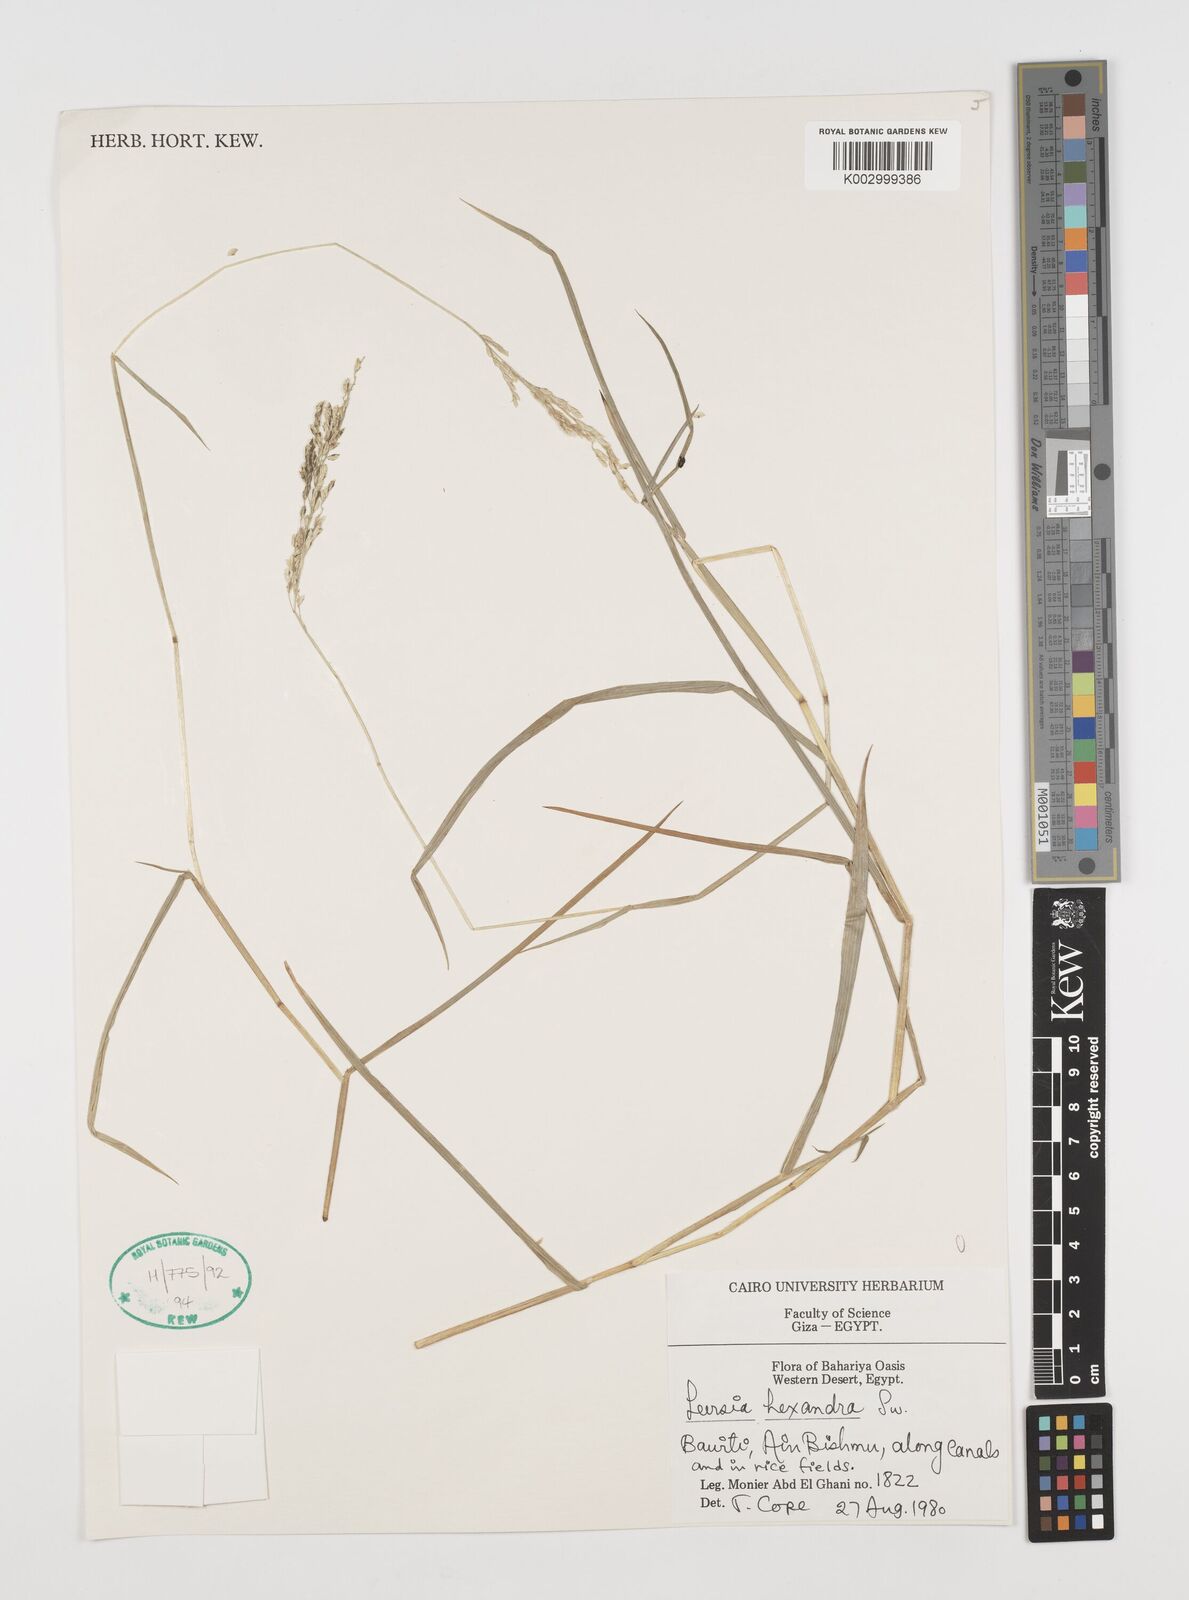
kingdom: Plantae
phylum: Tracheophyta
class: Liliopsida
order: Poales
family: Poaceae
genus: Leersia
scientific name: Leersia hexandra
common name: Southern cut grass
